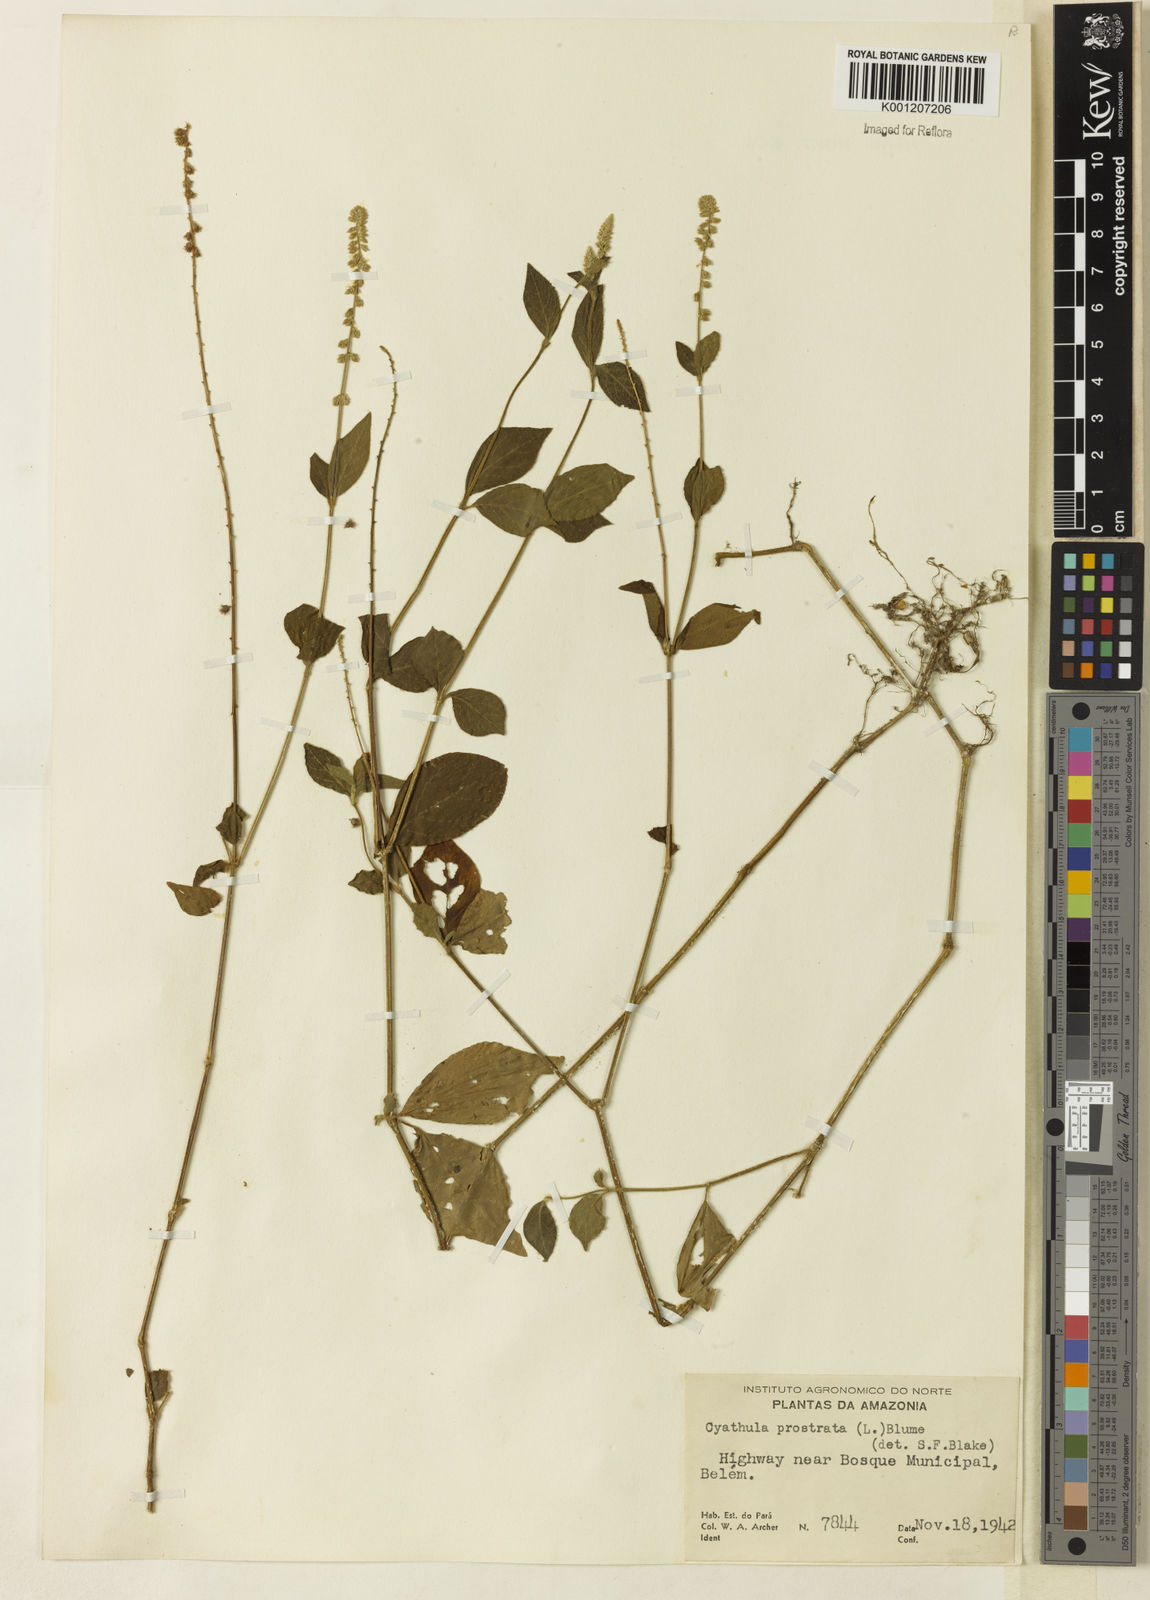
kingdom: Plantae
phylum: Tracheophyta
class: Magnoliopsida
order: Caryophyllales
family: Amaranthaceae
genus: Cyathula
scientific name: Cyathula prostrata
